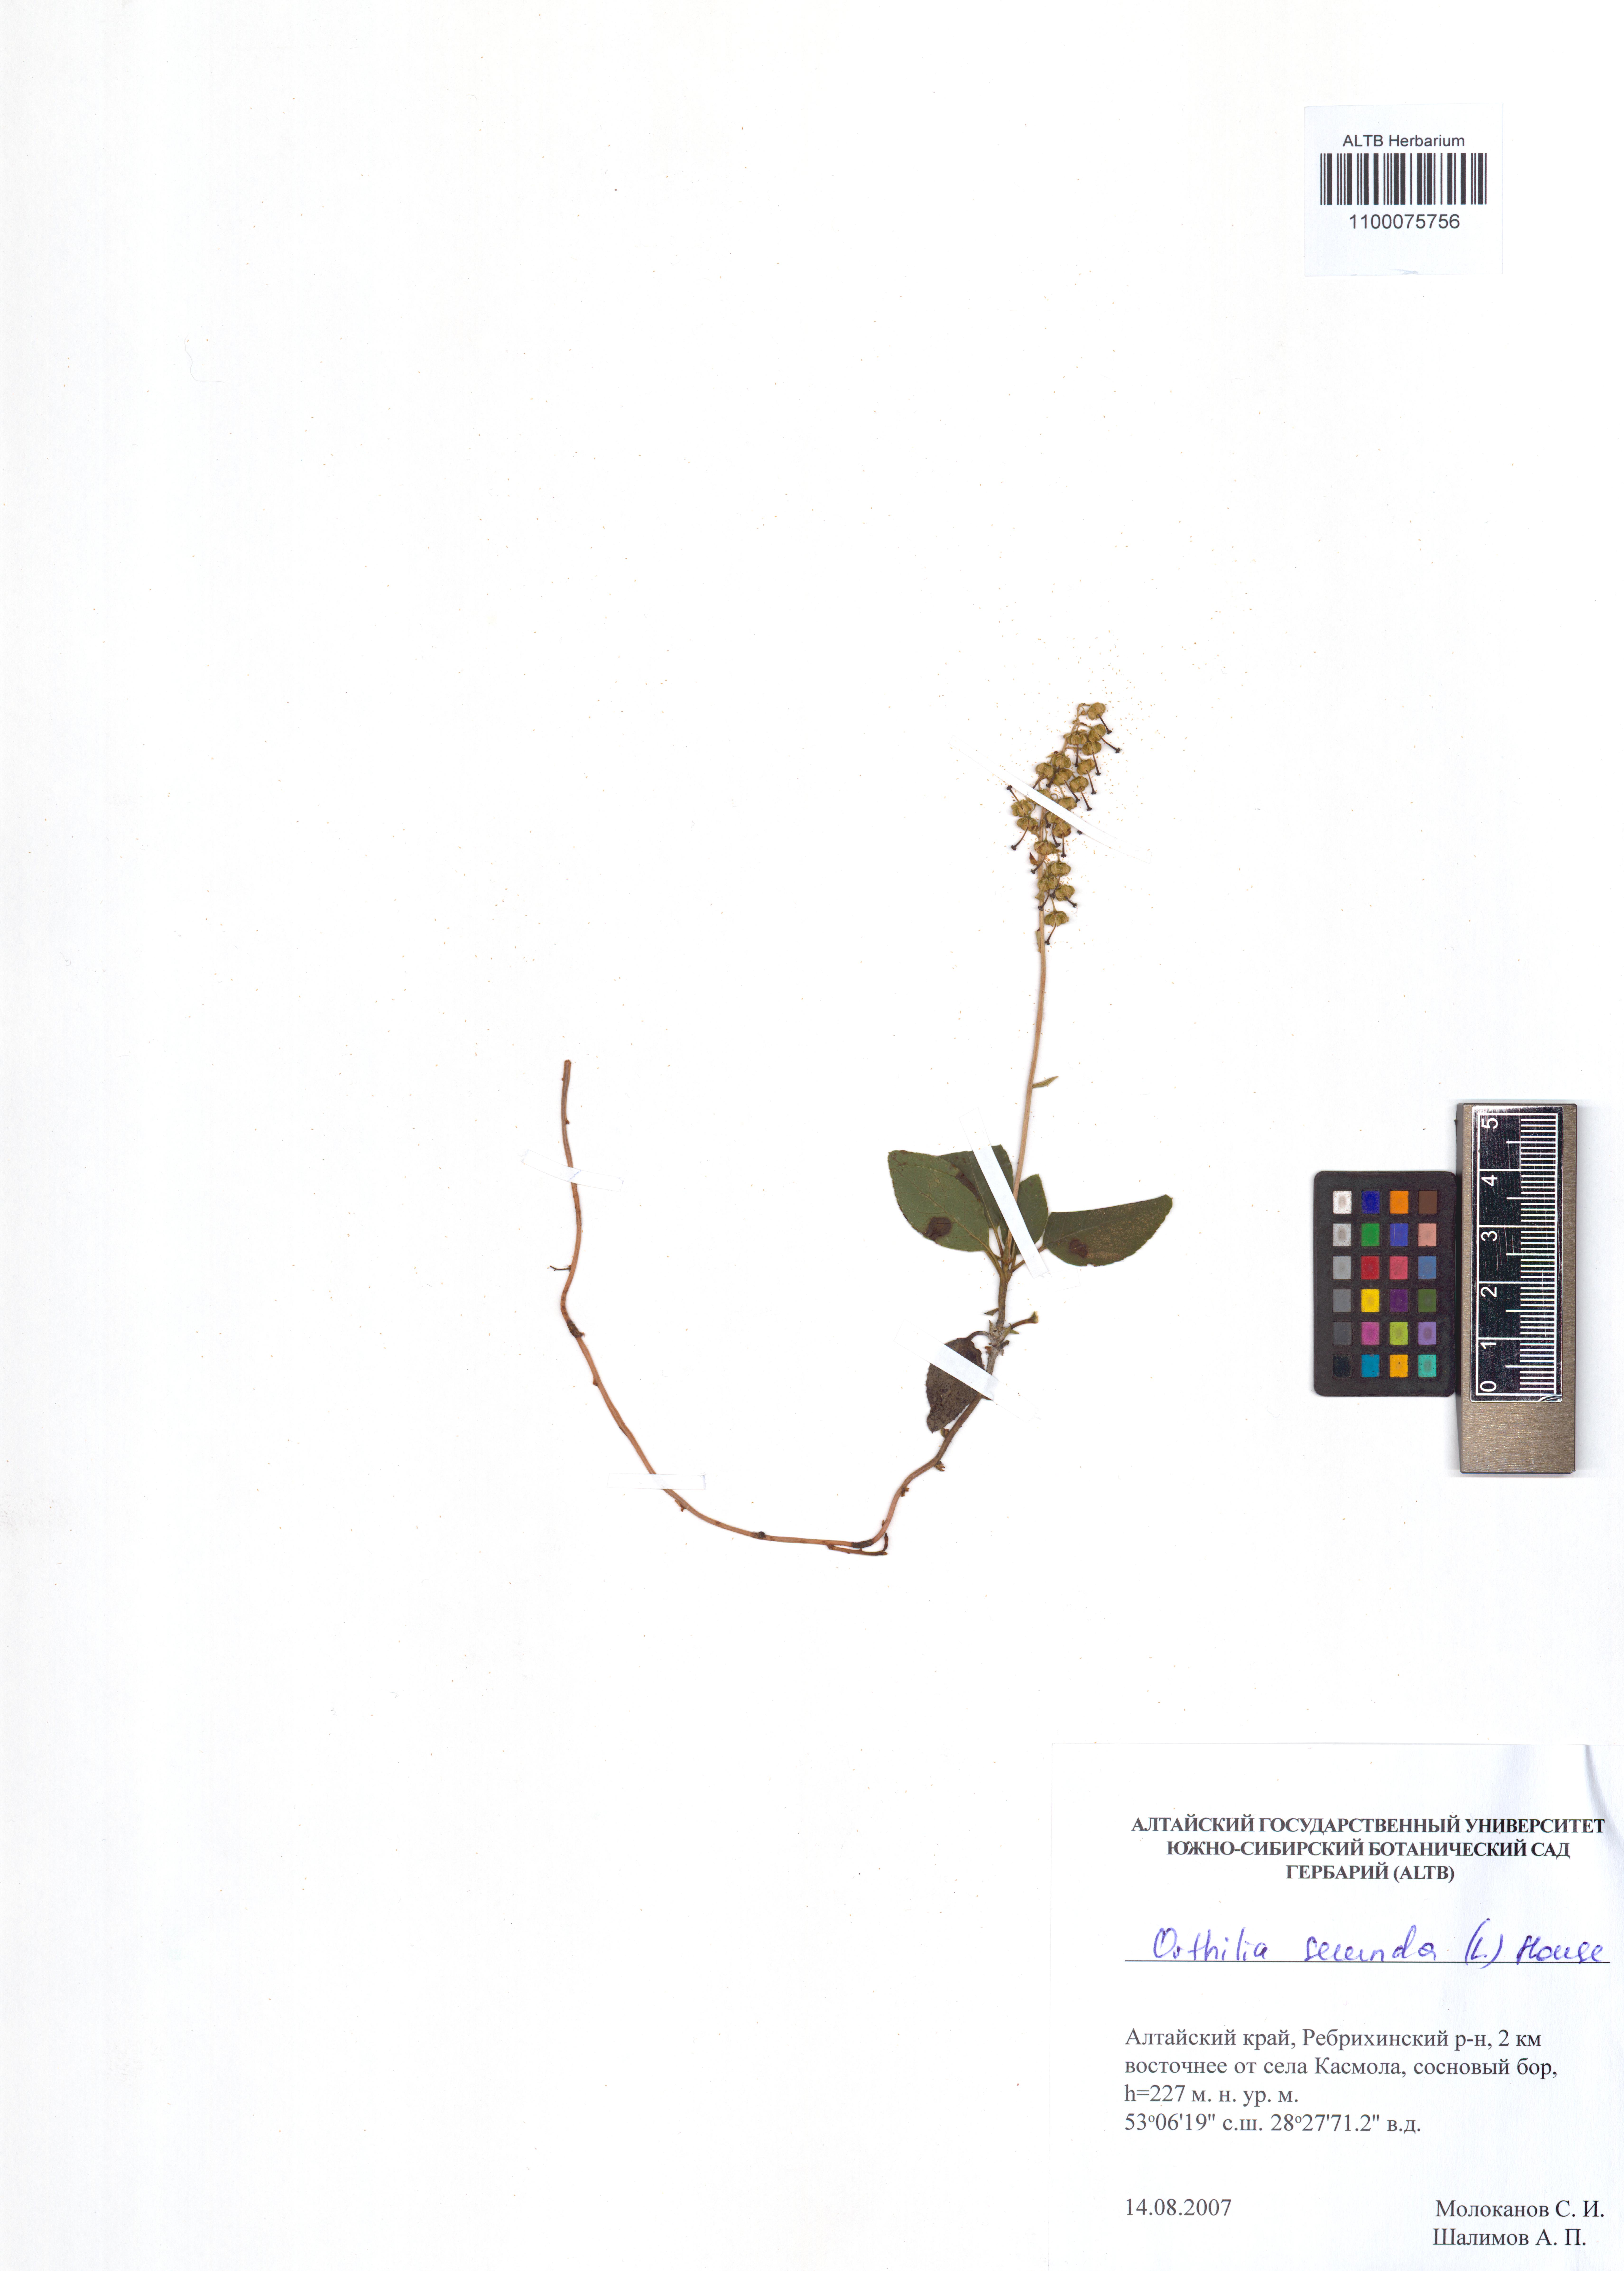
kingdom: Plantae
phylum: Tracheophyta
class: Magnoliopsida
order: Ericales
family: Ericaceae
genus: Orthilia
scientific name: Orthilia secunda
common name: One-sided orthilia
